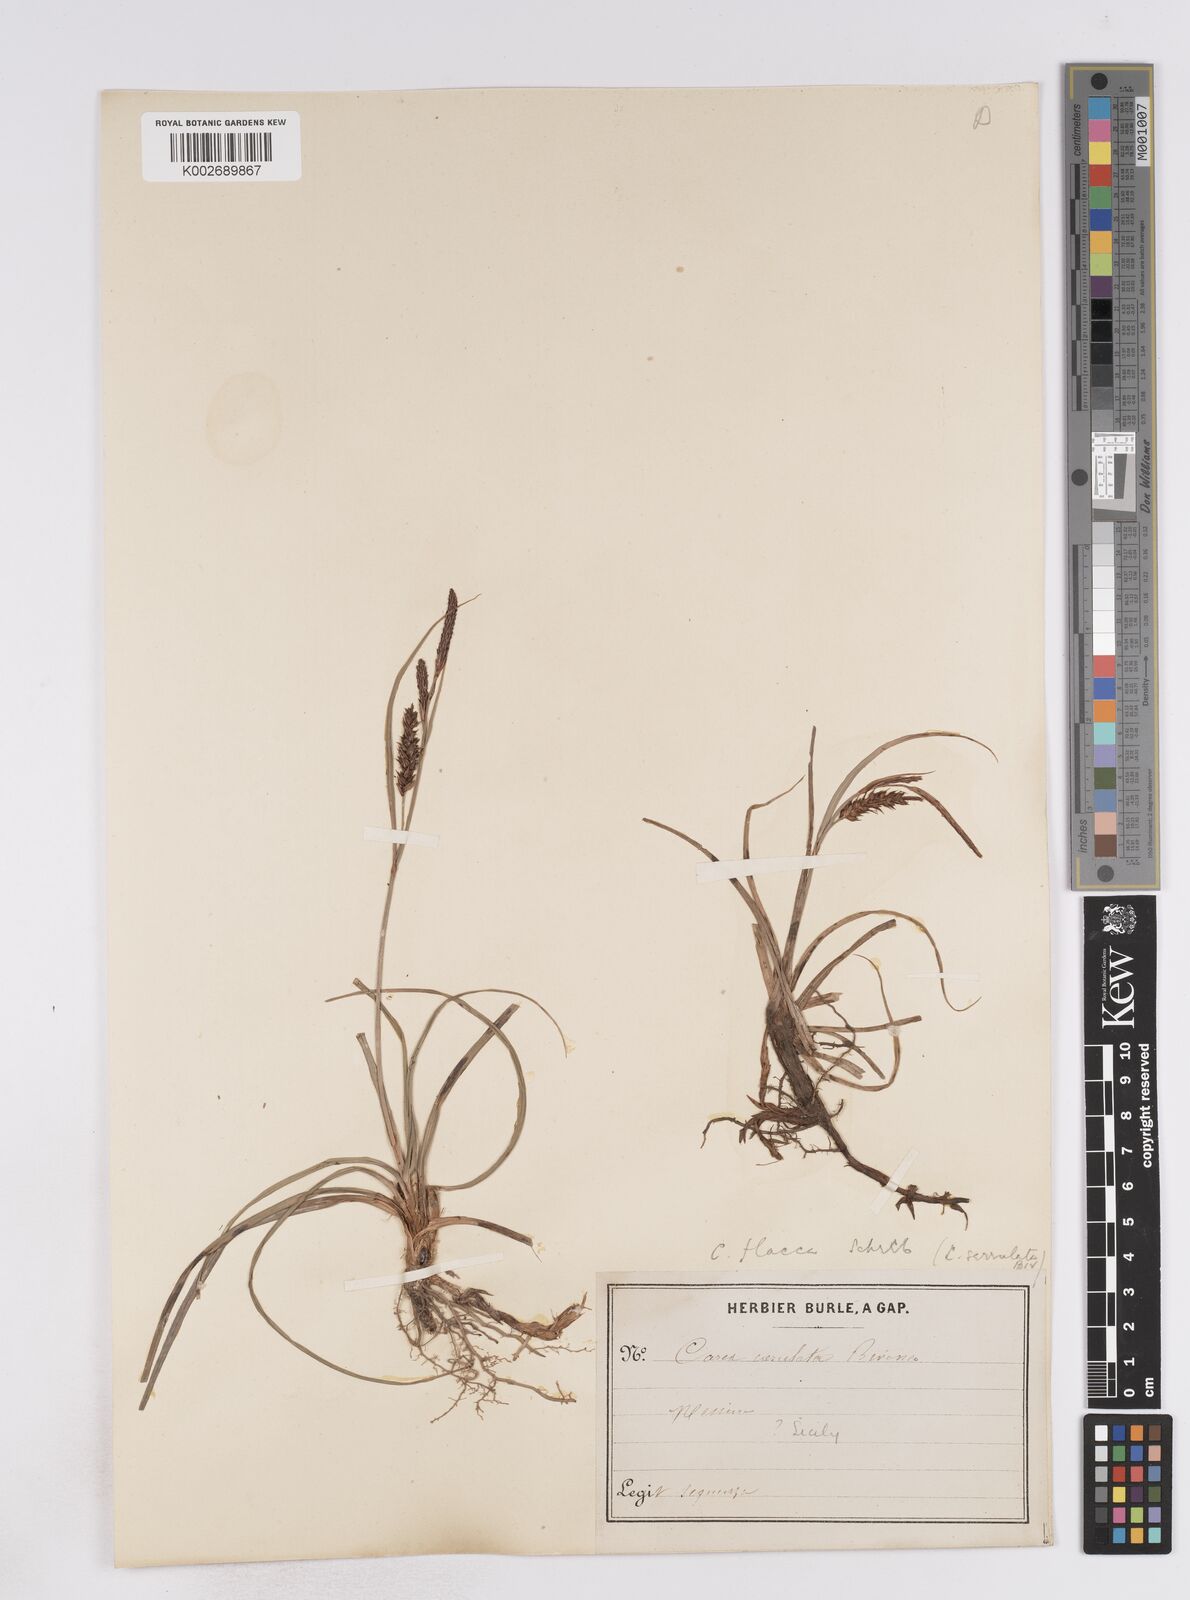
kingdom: Plantae
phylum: Tracheophyta
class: Liliopsida
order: Poales
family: Cyperaceae
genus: Carex
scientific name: Carex flacca
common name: Glaucous sedge
